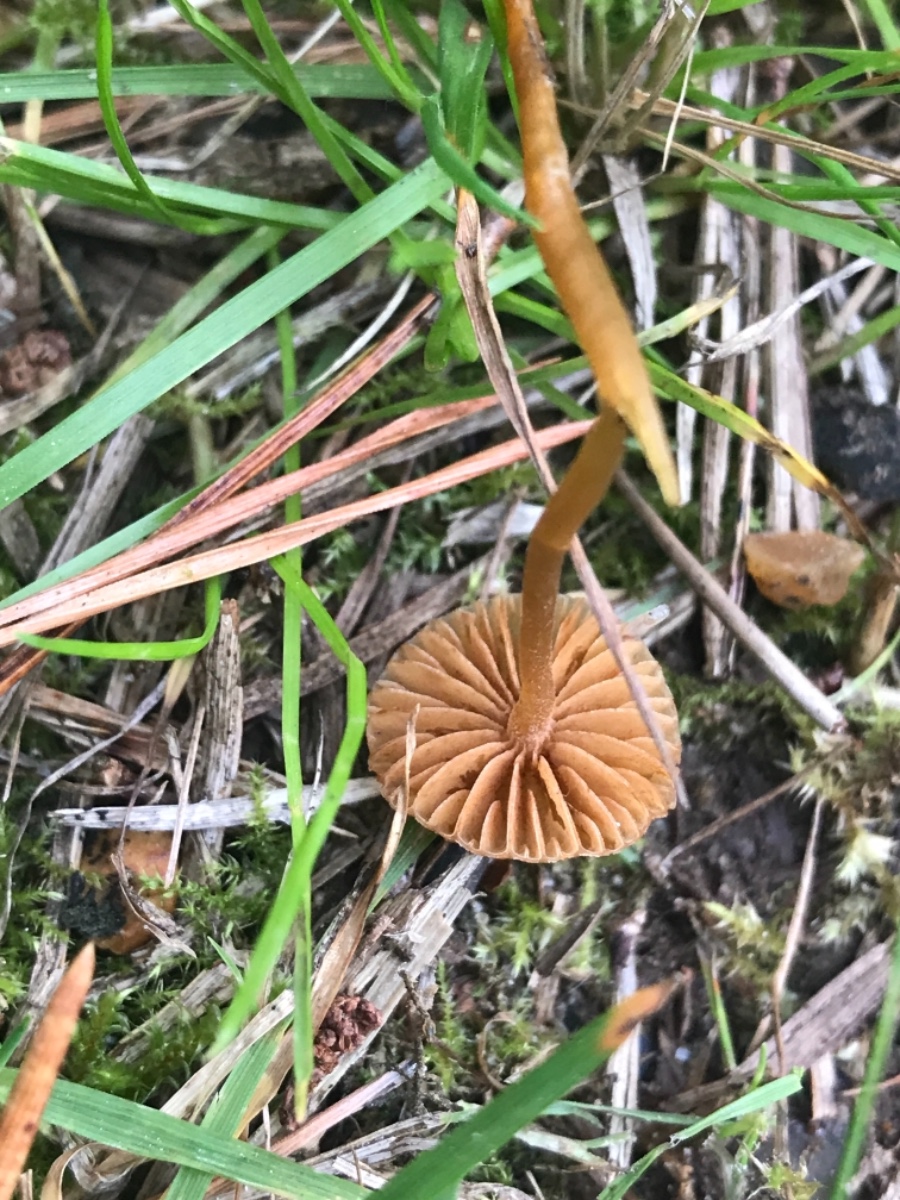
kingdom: Fungi
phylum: Basidiomycota
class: Agaricomycetes
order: Agaricales
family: Hymenogastraceae
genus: Galerina
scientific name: Galerina
